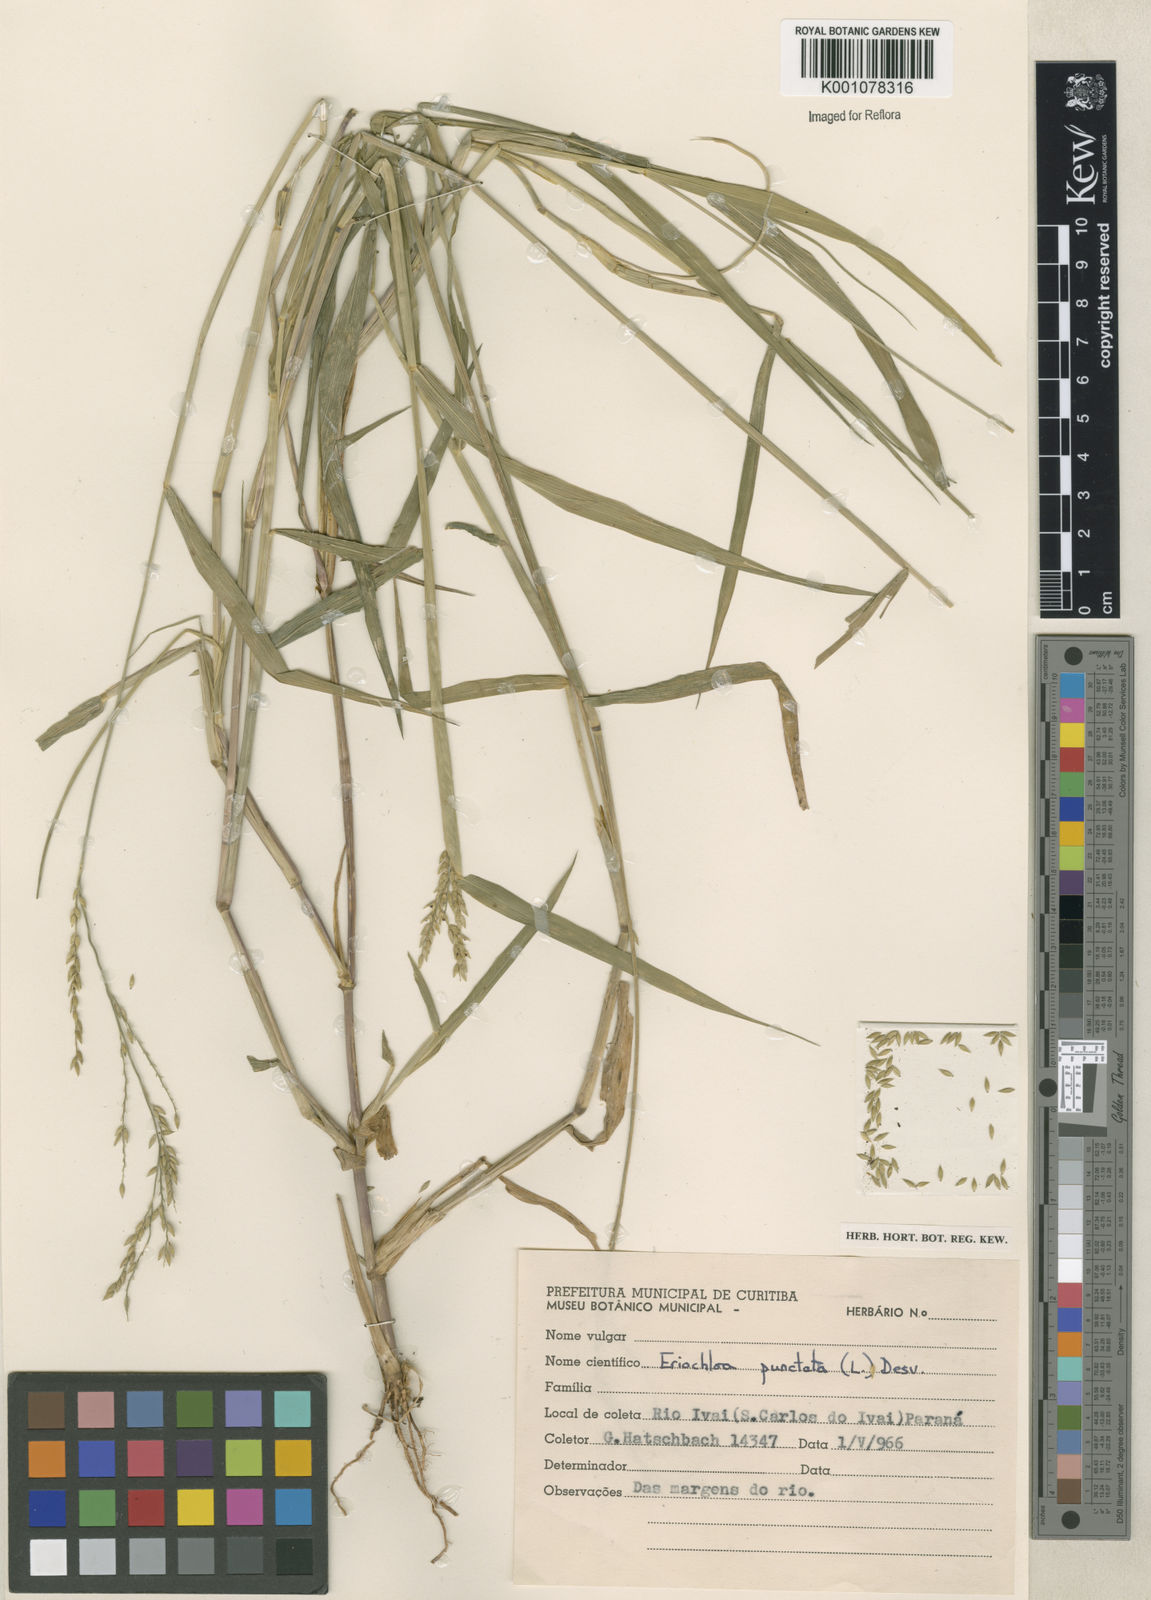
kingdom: Plantae
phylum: Tracheophyta
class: Liliopsida
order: Poales
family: Poaceae
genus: Eriochloa
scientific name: Eriochloa punctata
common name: Louisiana cupgrass
